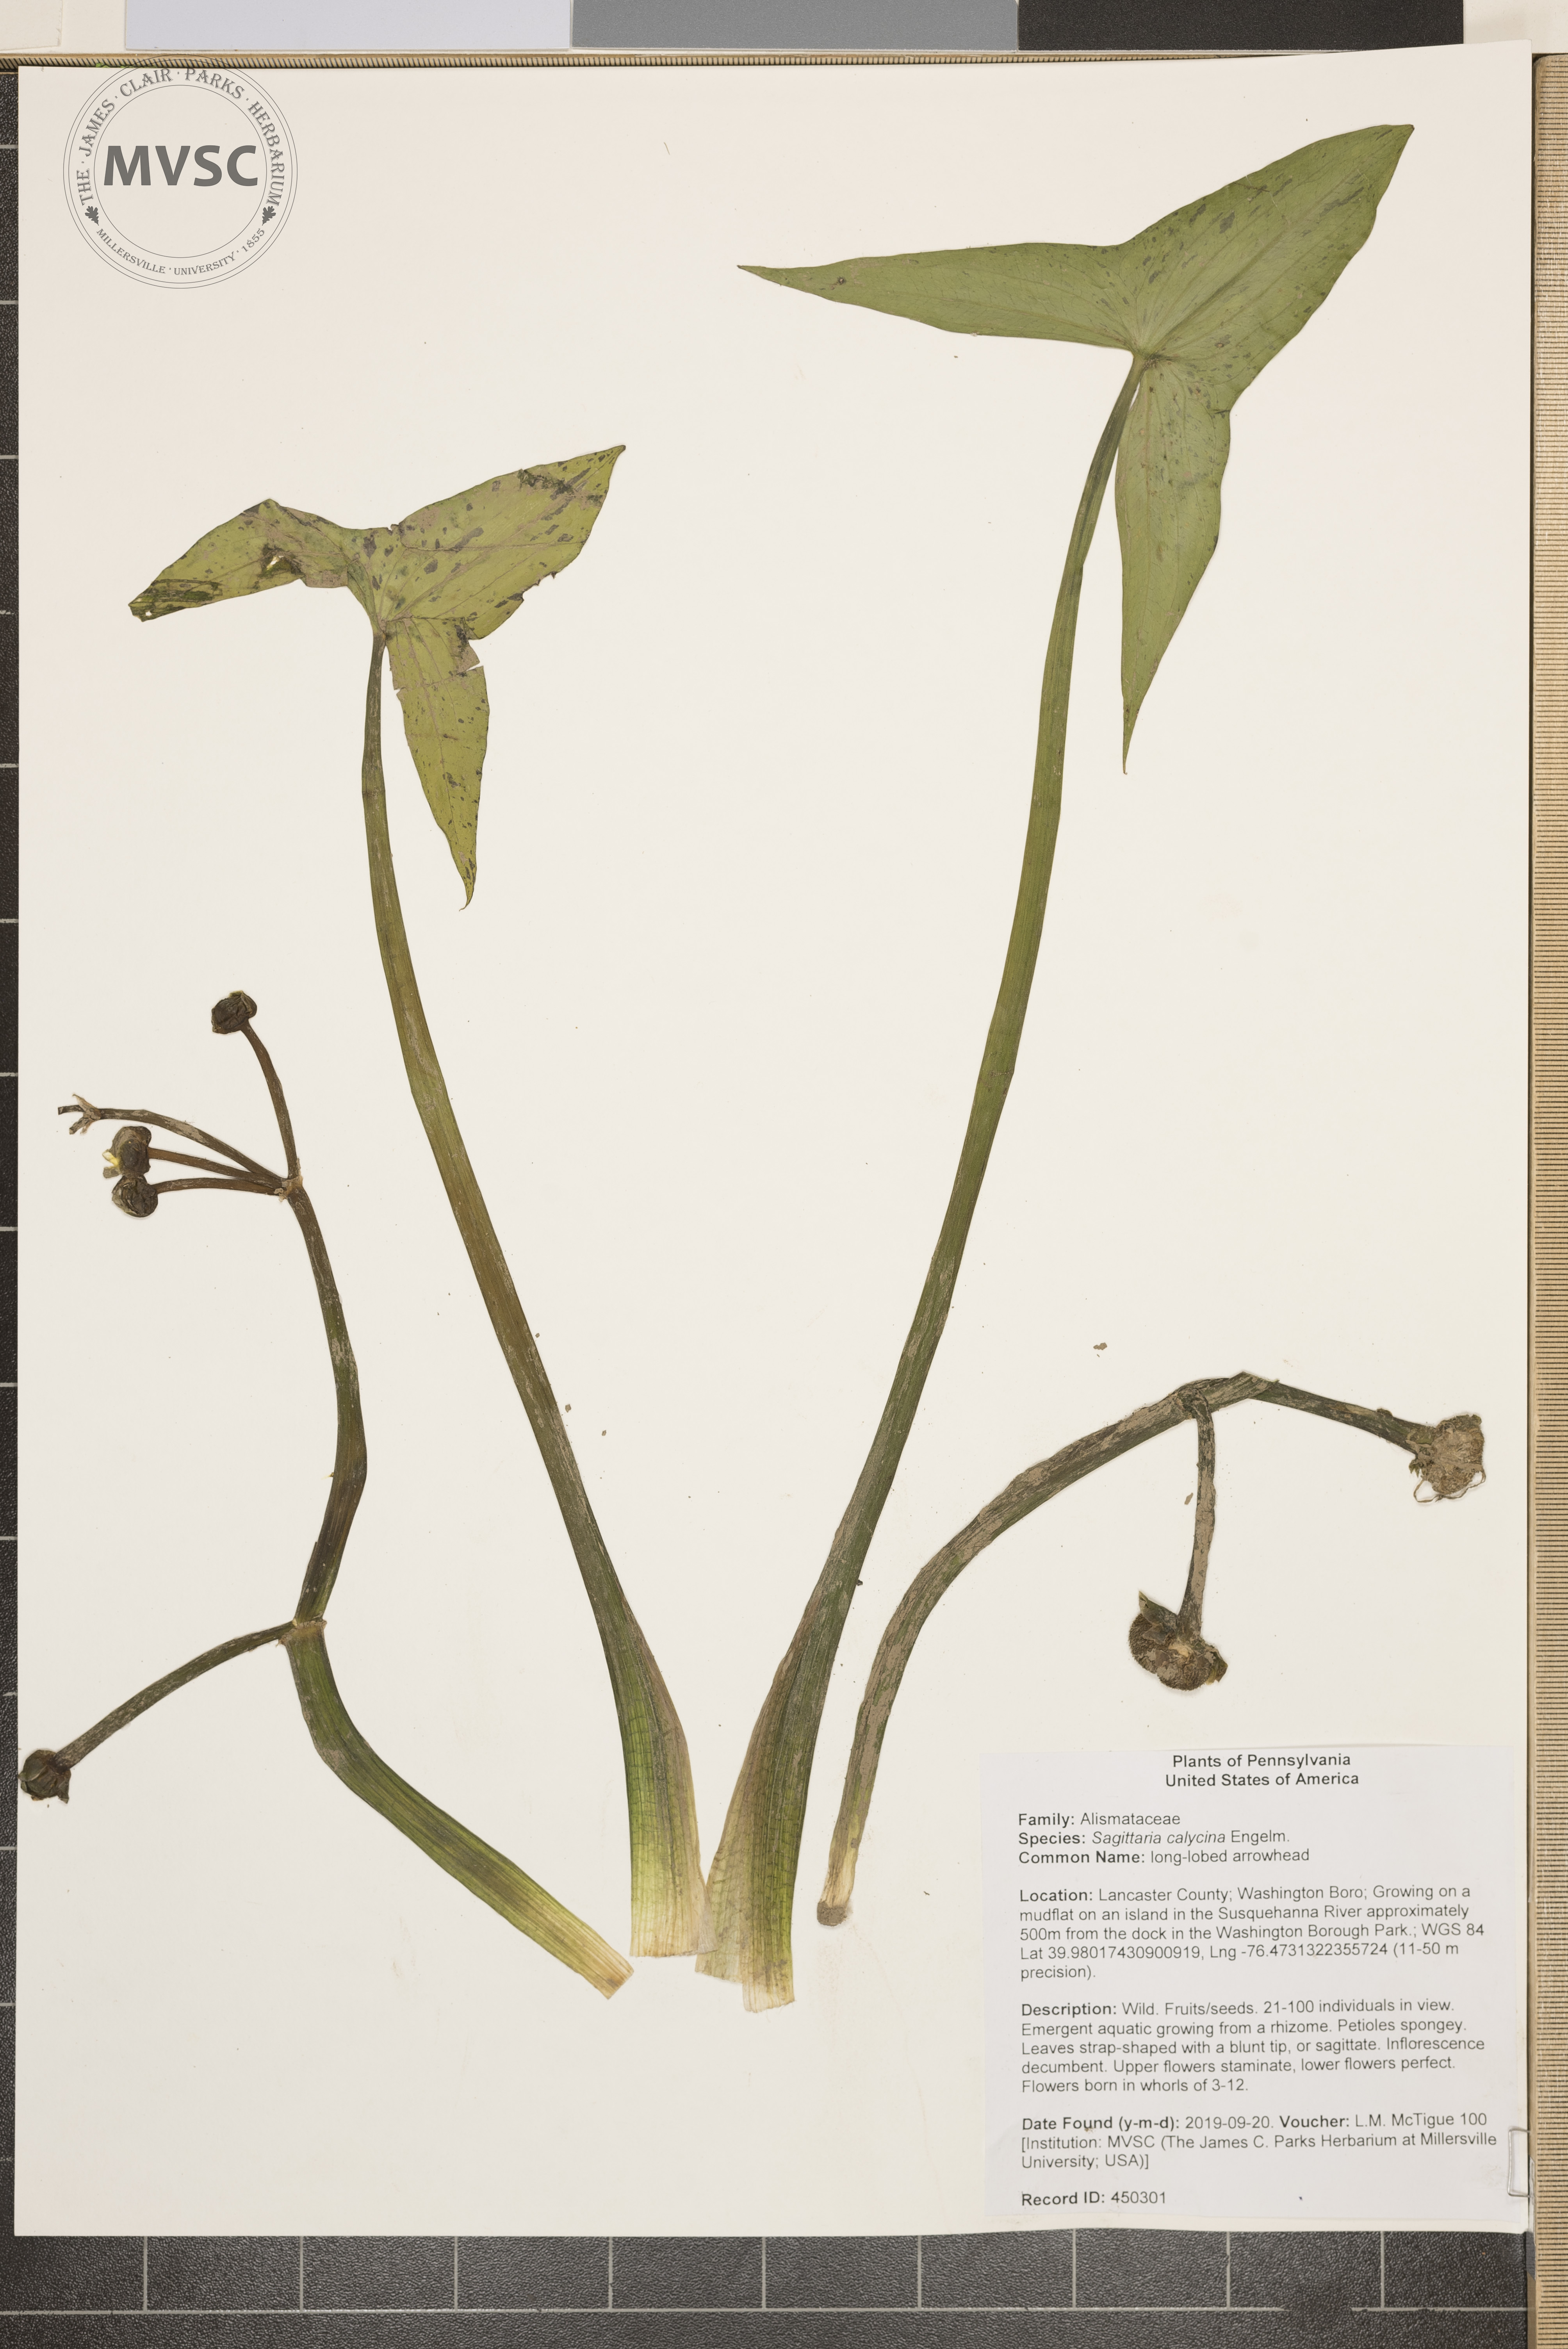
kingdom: Plantae
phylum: Tracheophyta
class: Liliopsida
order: Alismatales
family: Alismataceae
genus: Sagittaria
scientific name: Sagittaria montevidensis
